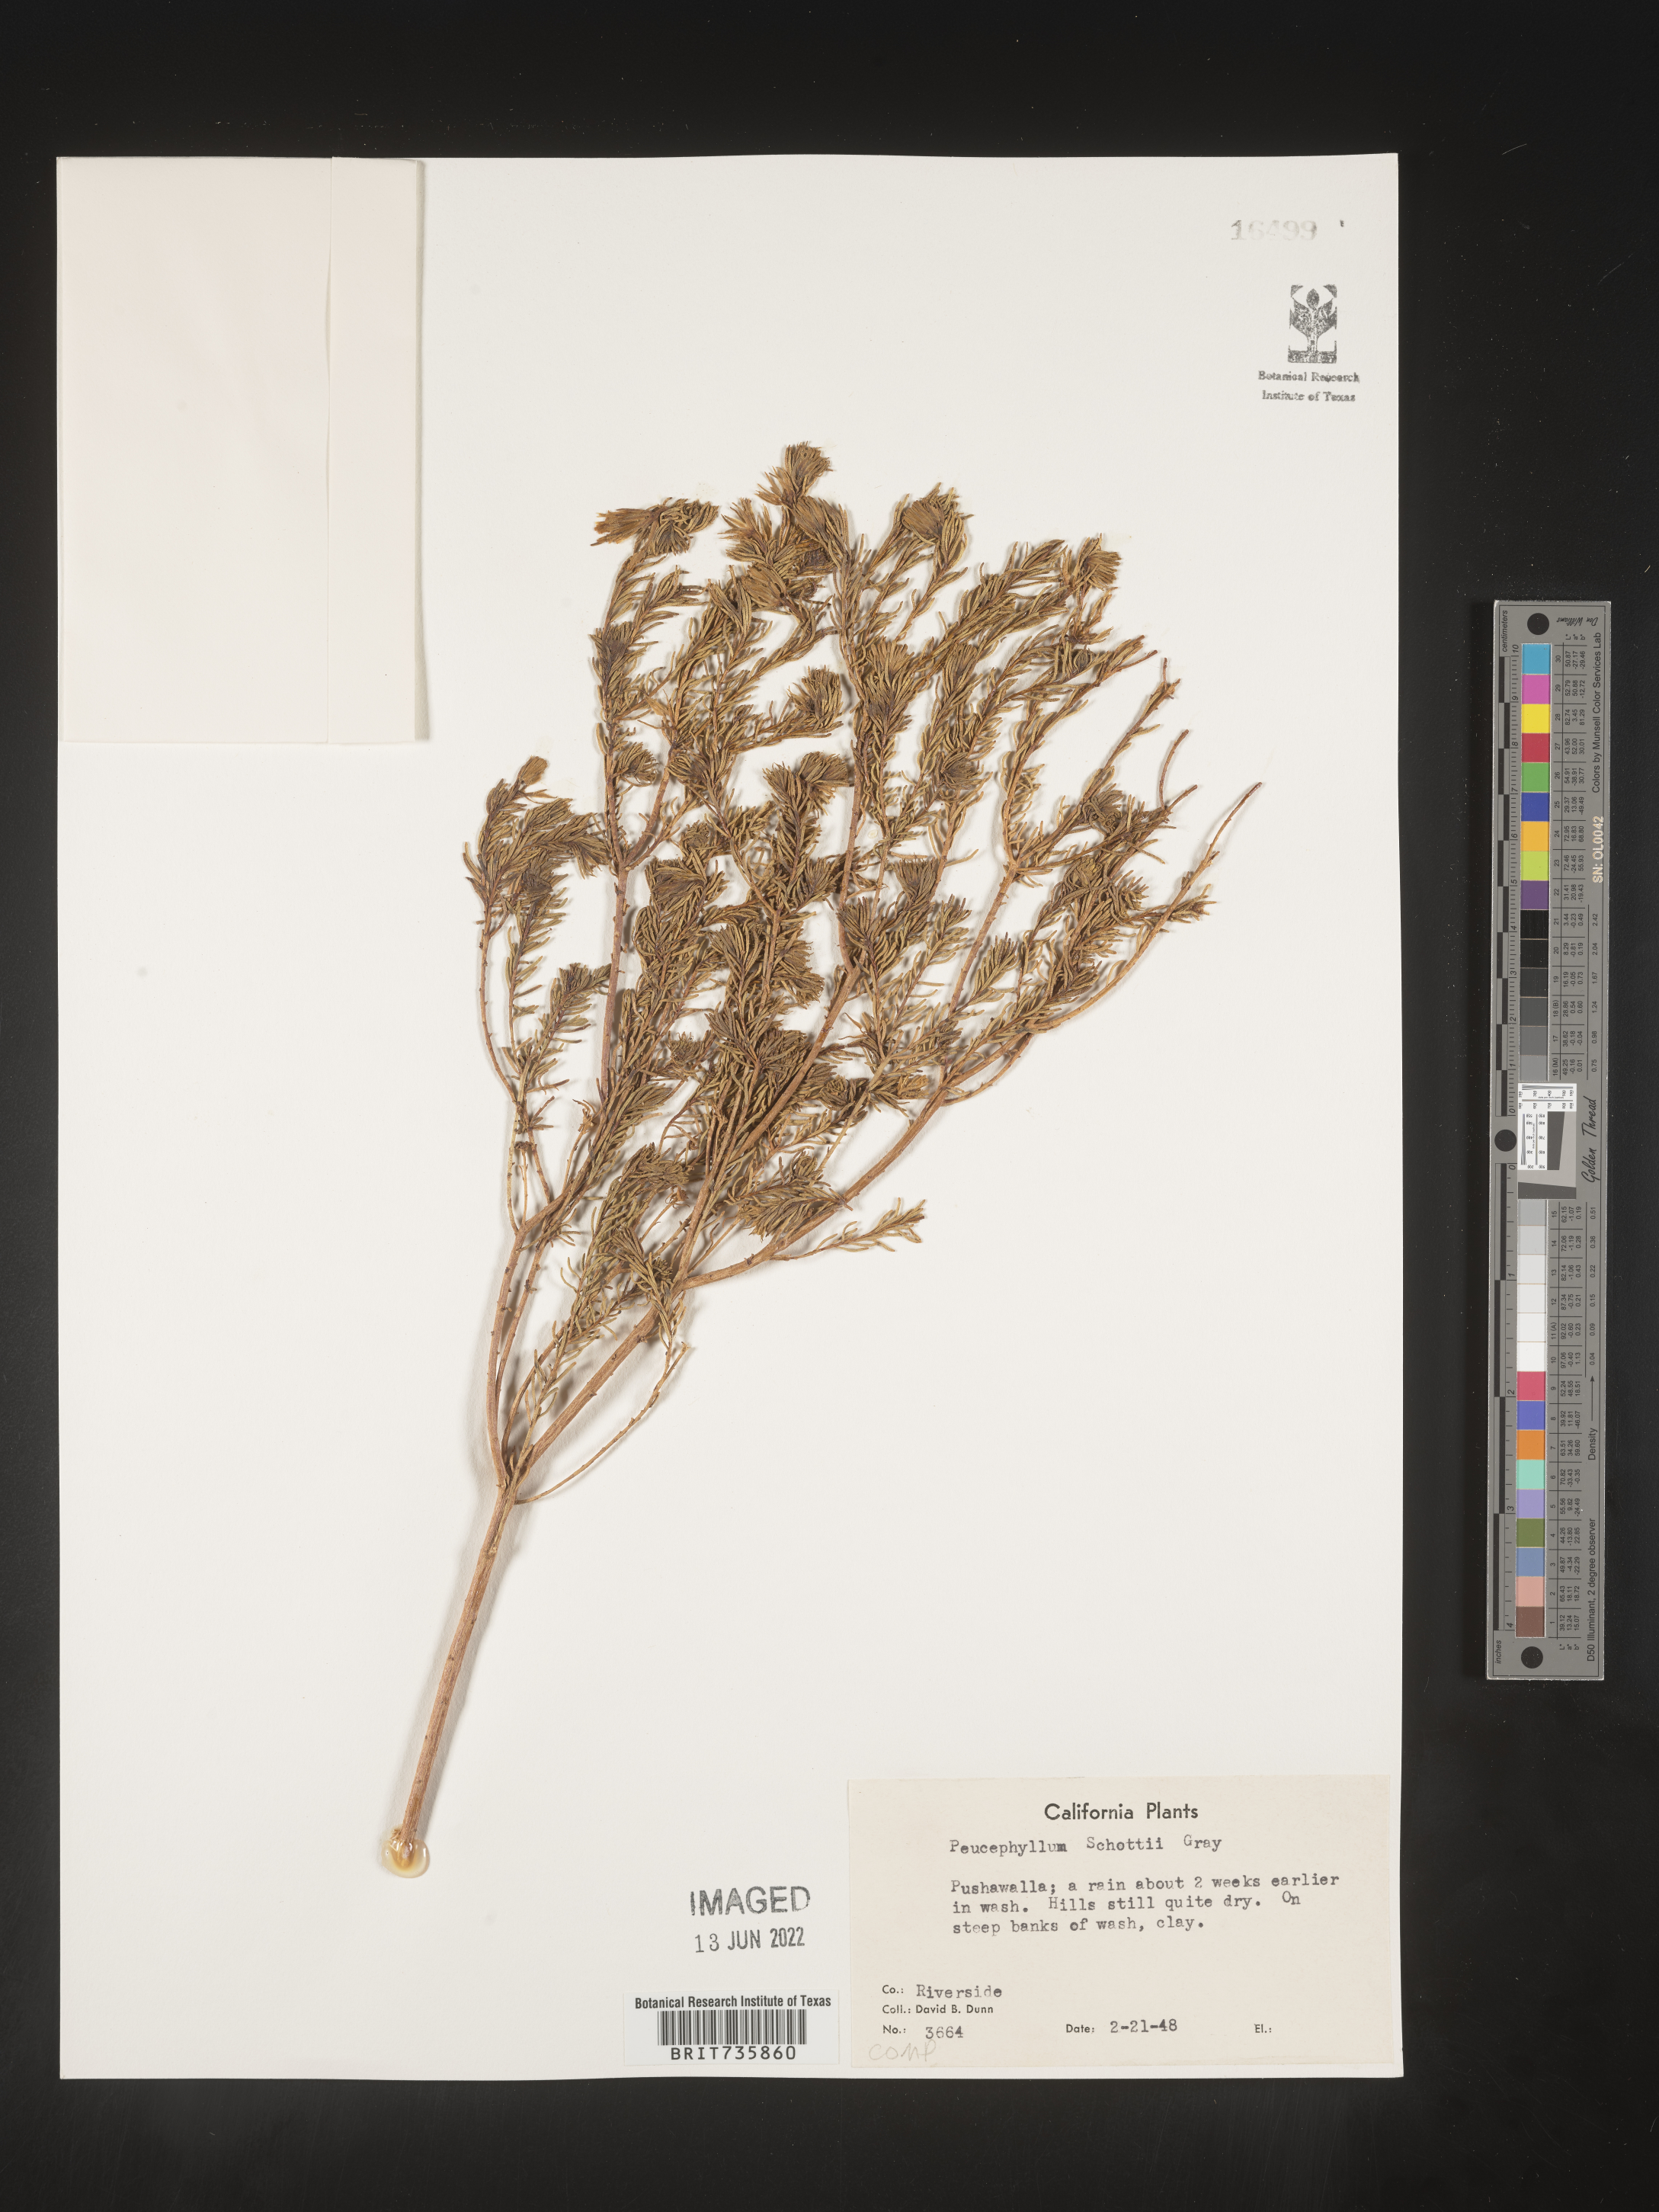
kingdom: Plantae
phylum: Tracheophyta
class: Magnoliopsida
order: Asterales
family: Asteraceae
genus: Peucephyllum
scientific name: Peucephyllum
